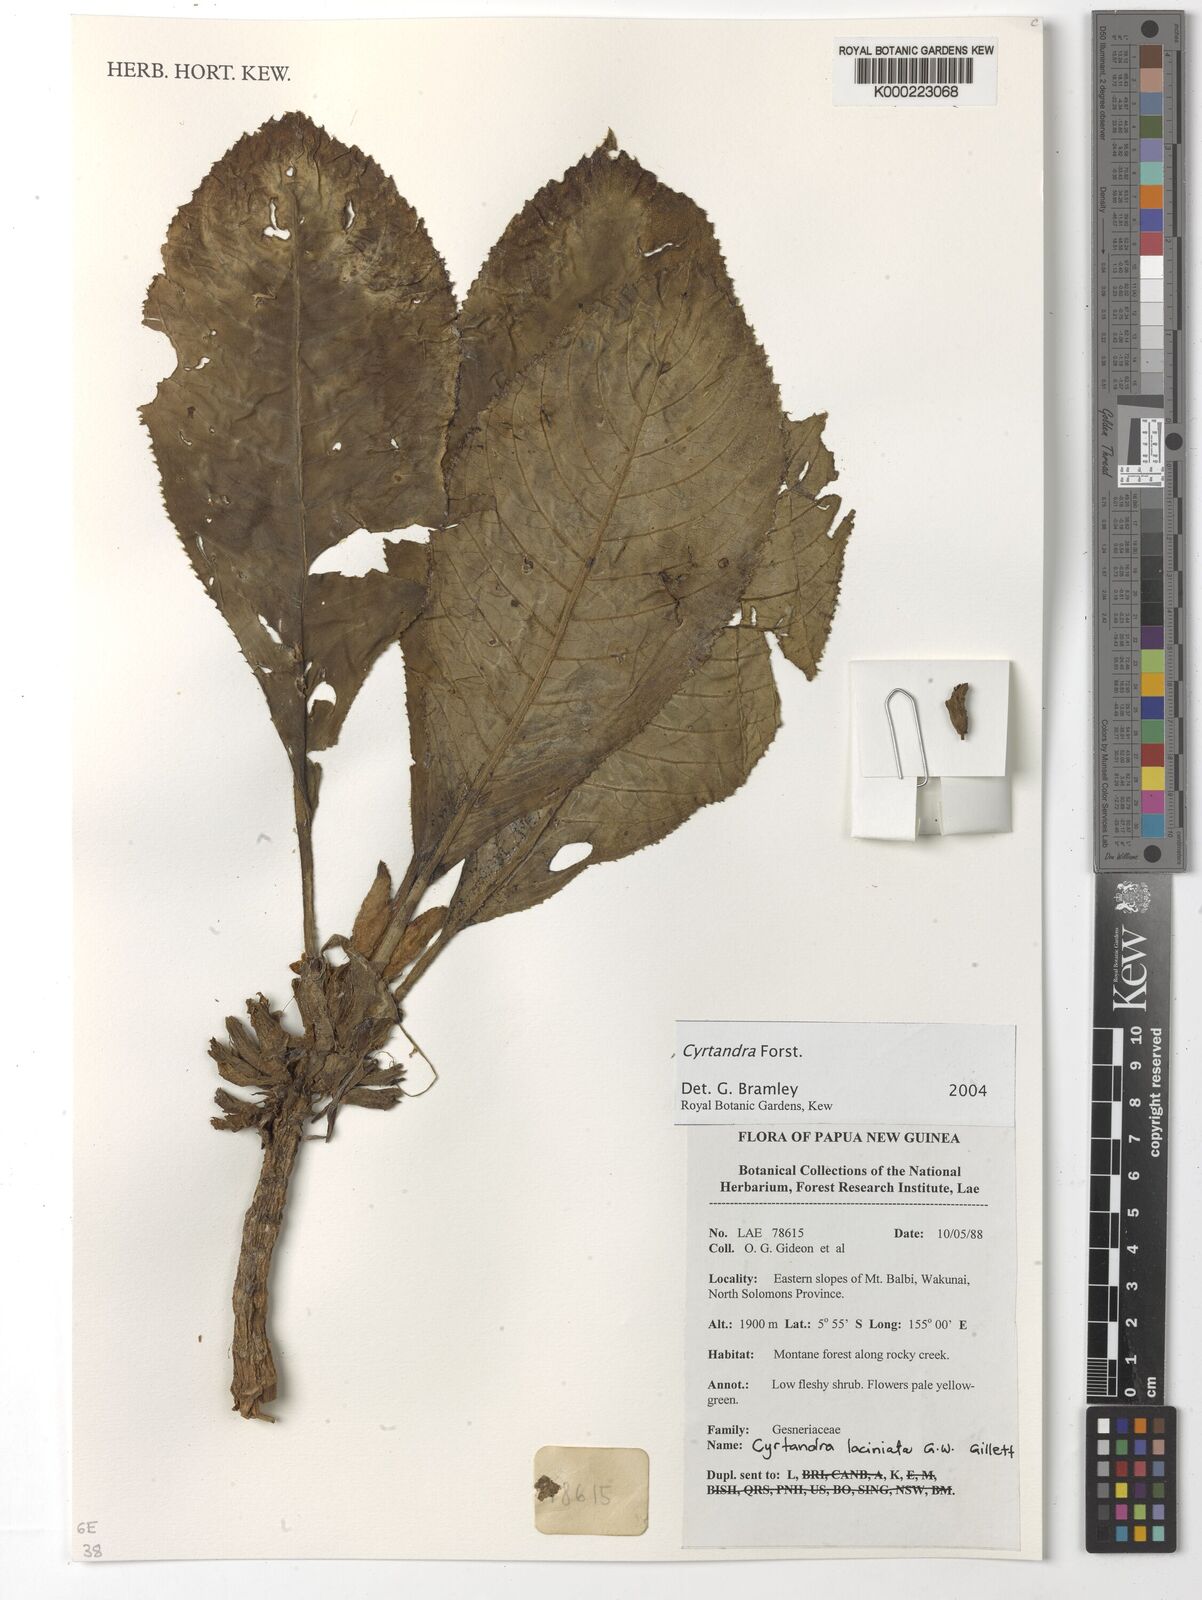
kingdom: Plantae
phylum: Tracheophyta
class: Magnoliopsida
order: Lamiales
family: Gesneriaceae
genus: Cyrtandra
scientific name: Cyrtandra
